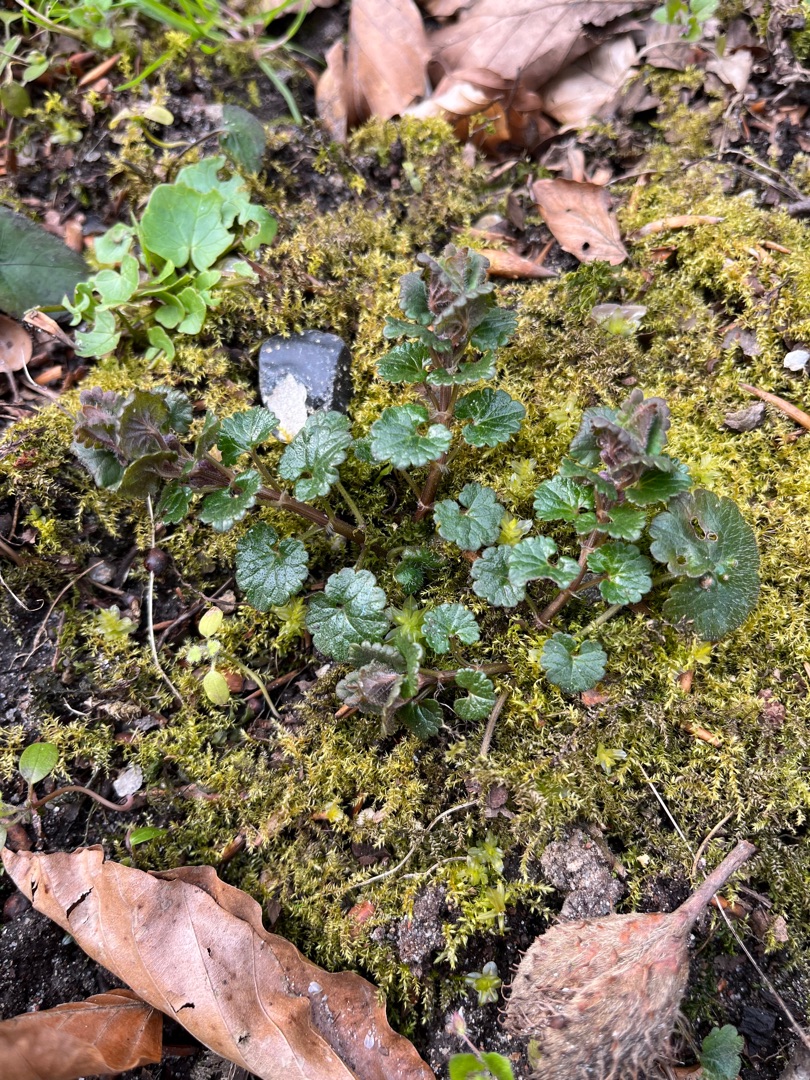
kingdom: Plantae
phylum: Tracheophyta
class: Magnoliopsida
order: Lamiales
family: Lamiaceae
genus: Glechoma
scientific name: Glechoma hederacea
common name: Korsknap
